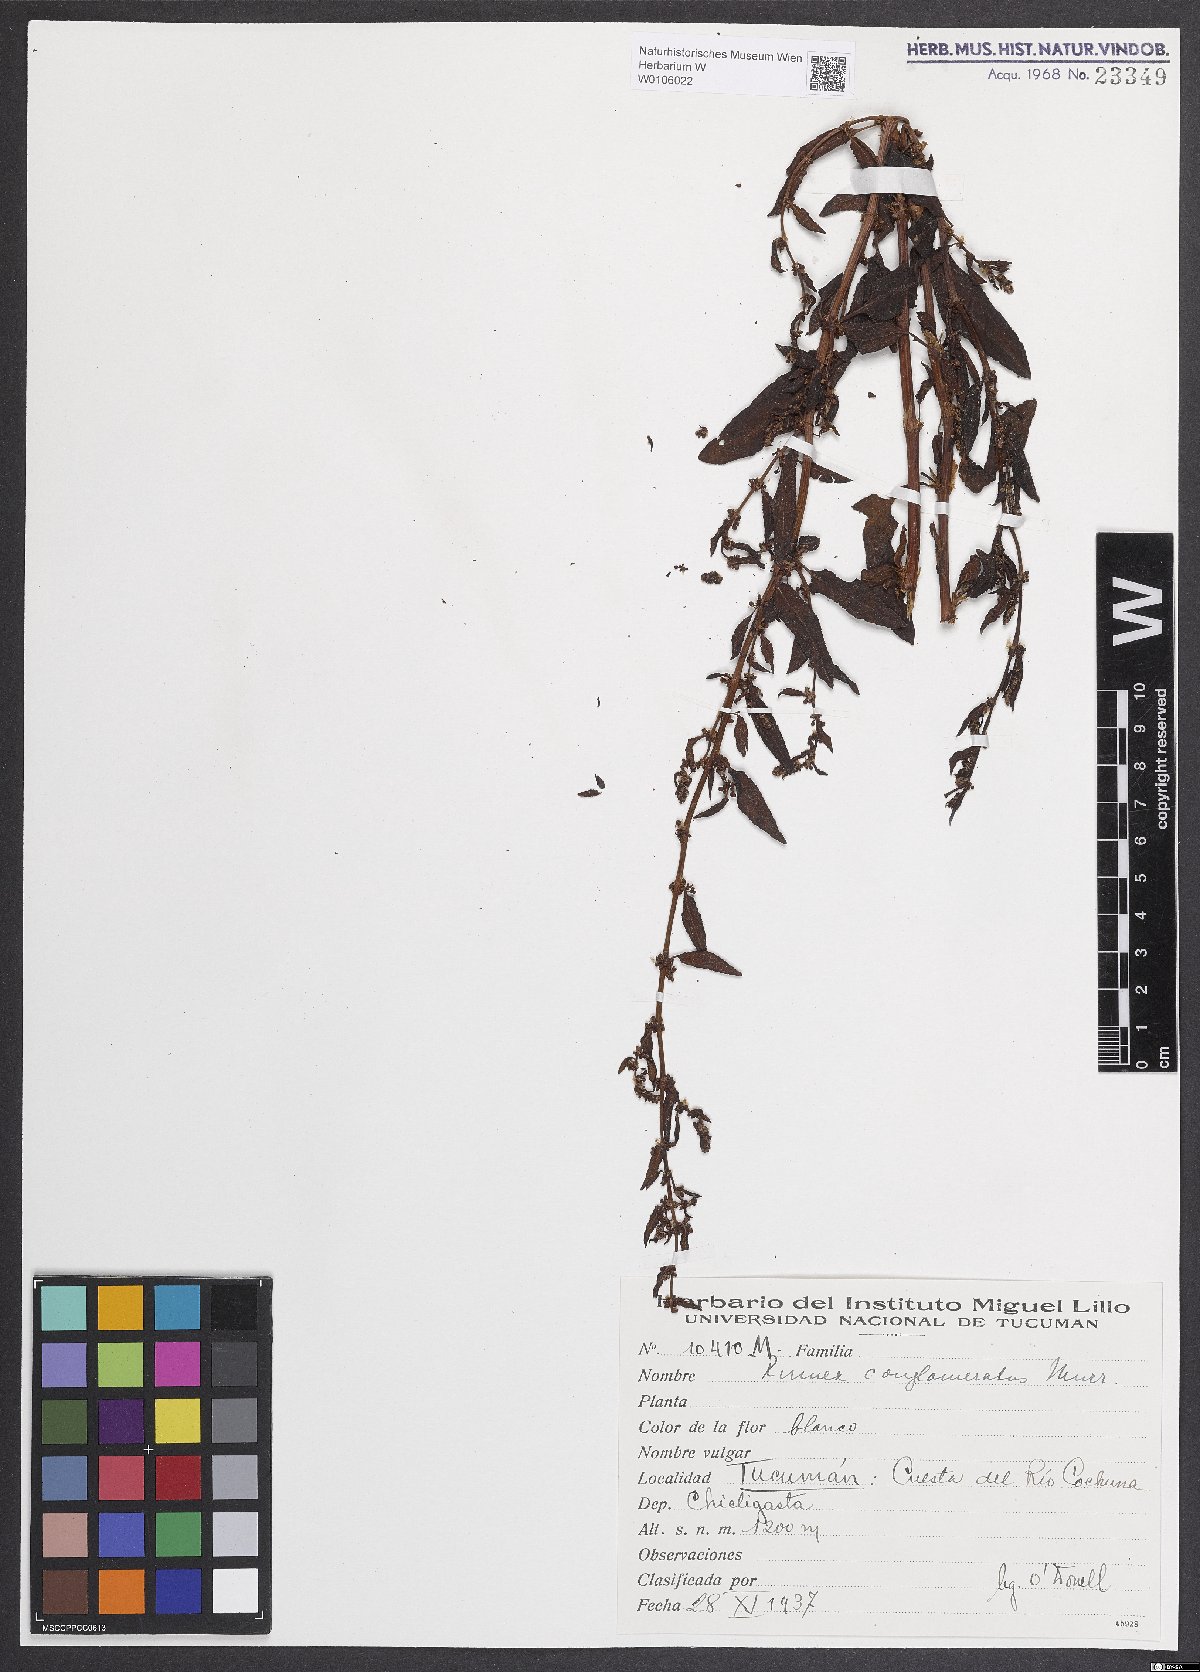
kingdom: Plantae
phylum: Tracheophyta
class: Magnoliopsida
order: Caryophyllales
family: Polygonaceae
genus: Rumex
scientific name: Rumex conglomeratus
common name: Clustered dock
